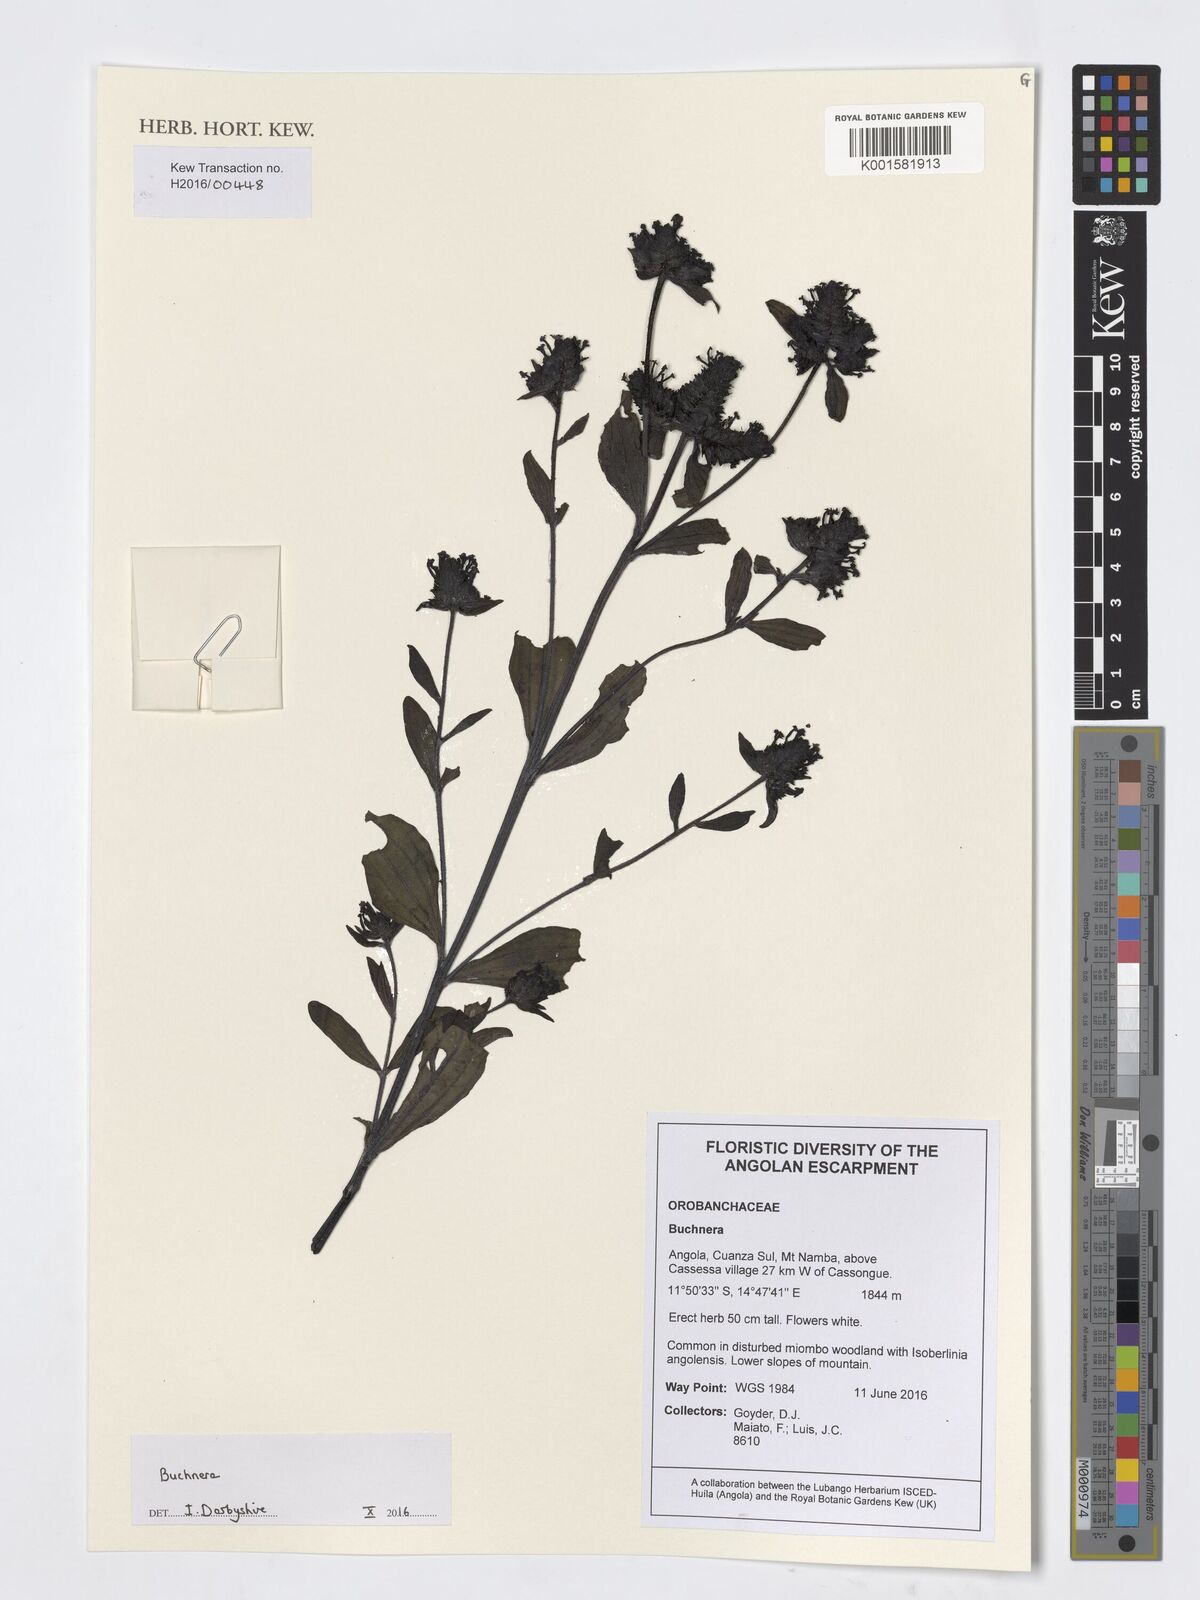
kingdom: Plantae
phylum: Tracheophyta
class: Magnoliopsida
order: Lamiales
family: Orobanchaceae
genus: Buchnera
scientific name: Buchnera
